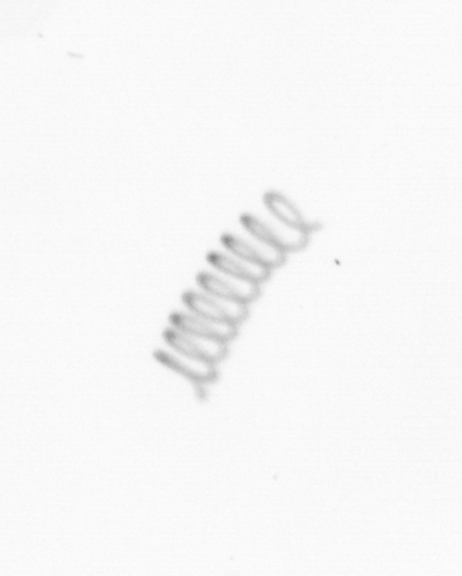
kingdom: Chromista
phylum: Ochrophyta
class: Bacillariophyceae
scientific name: Bacillariophyceae
